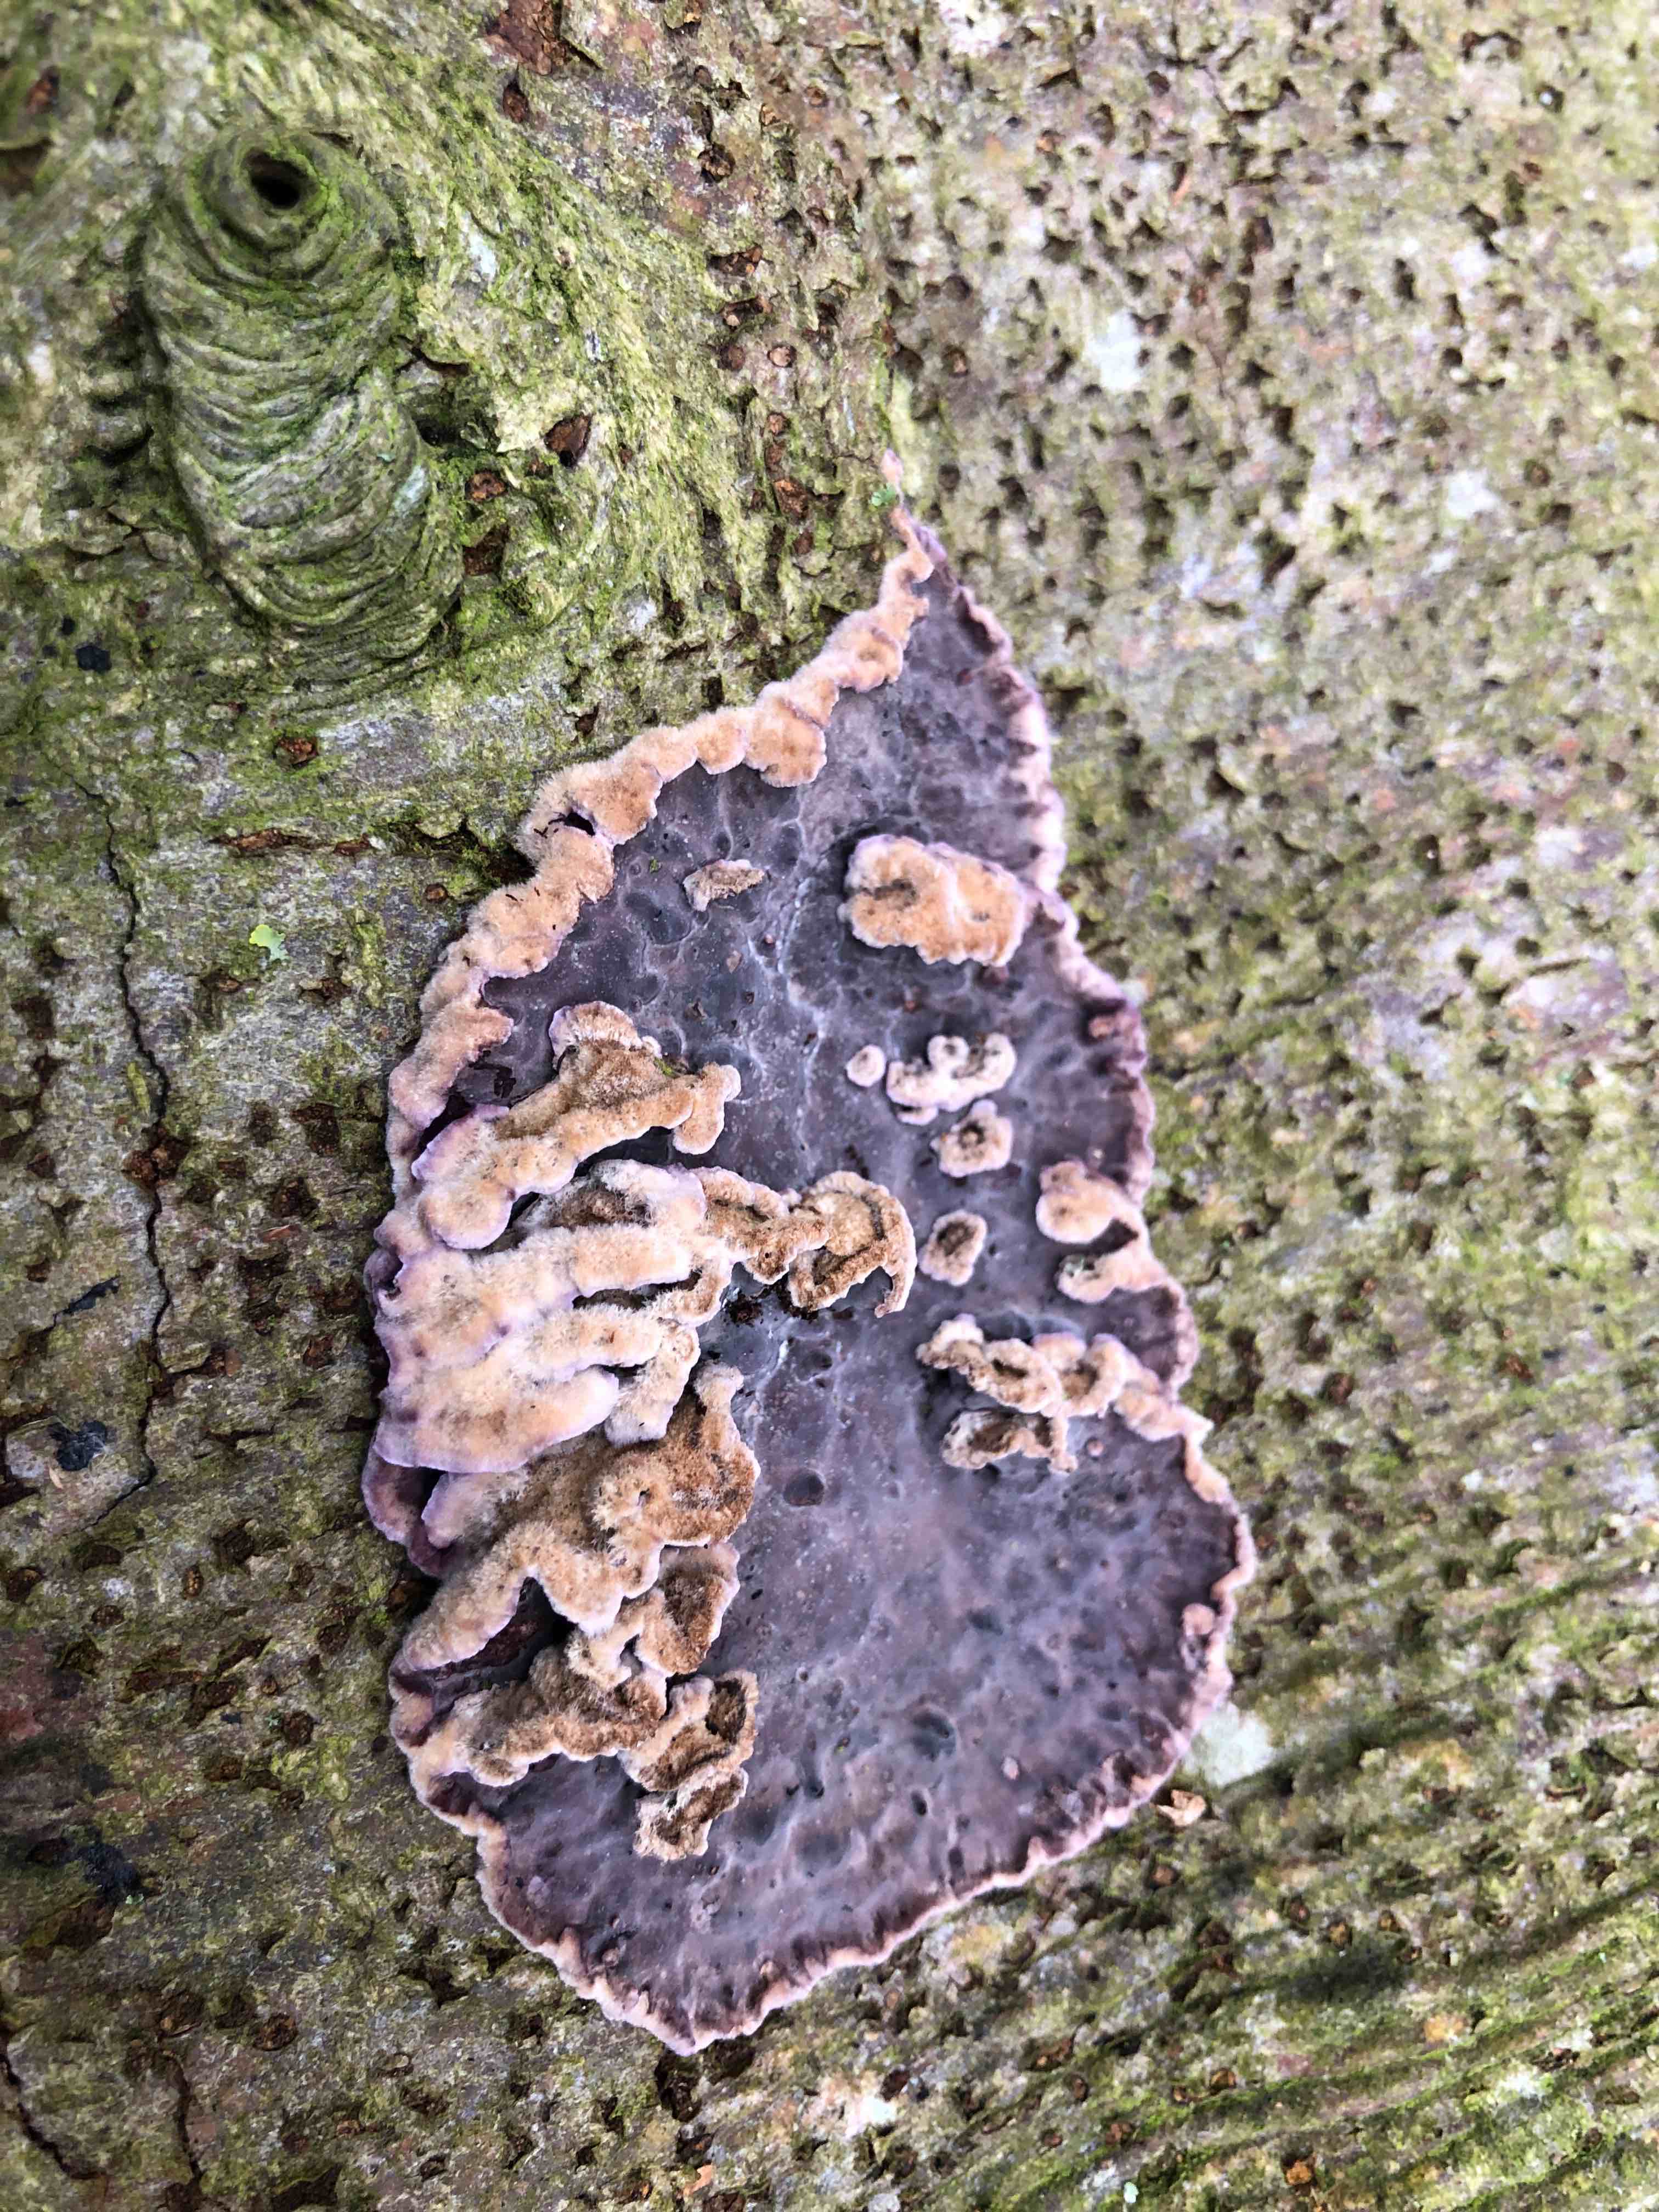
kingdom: Fungi
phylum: Basidiomycota
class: Agaricomycetes
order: Agaricales
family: Cyphellaceae
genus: Chondrostereum
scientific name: Chondrostereum purpureum
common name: purpurlædersvamp
